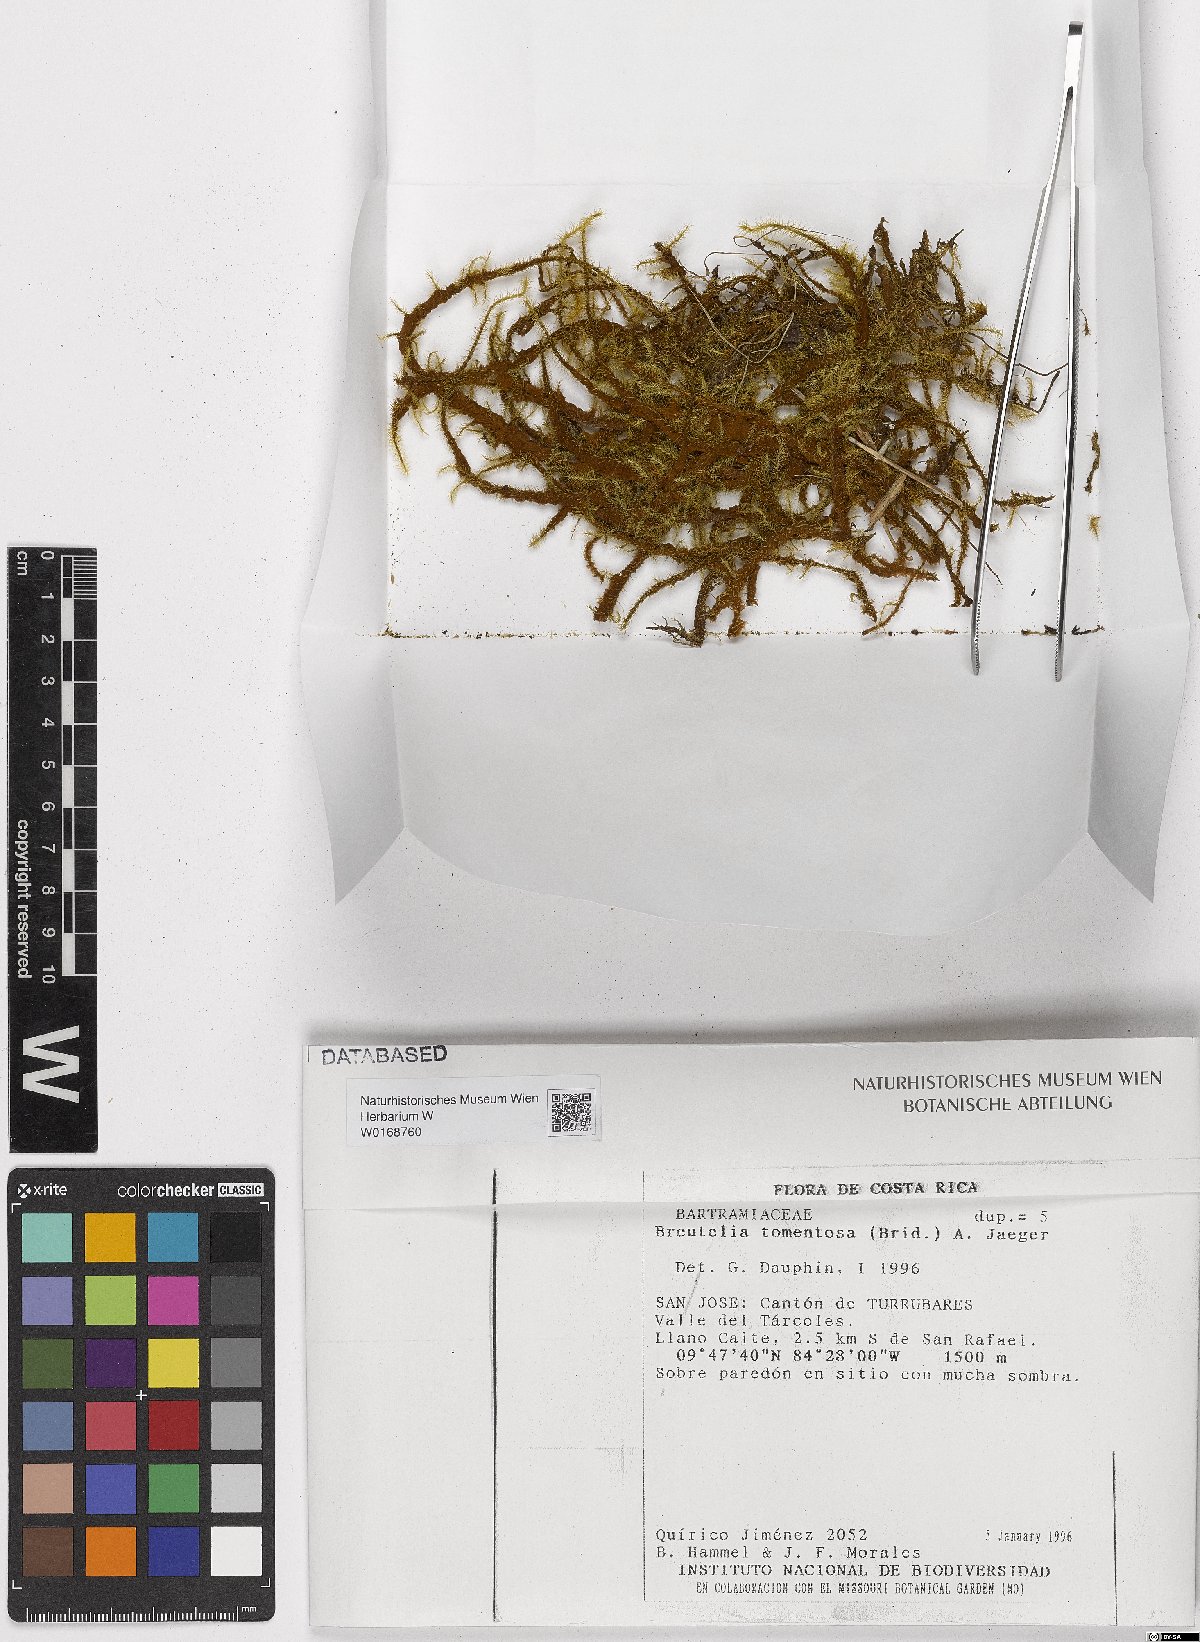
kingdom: Plantae
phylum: Bryophyta
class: Bryopsida
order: Bartramiales
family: Bartramiaceae
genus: Breutelia
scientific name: Breutelia tomentosa
